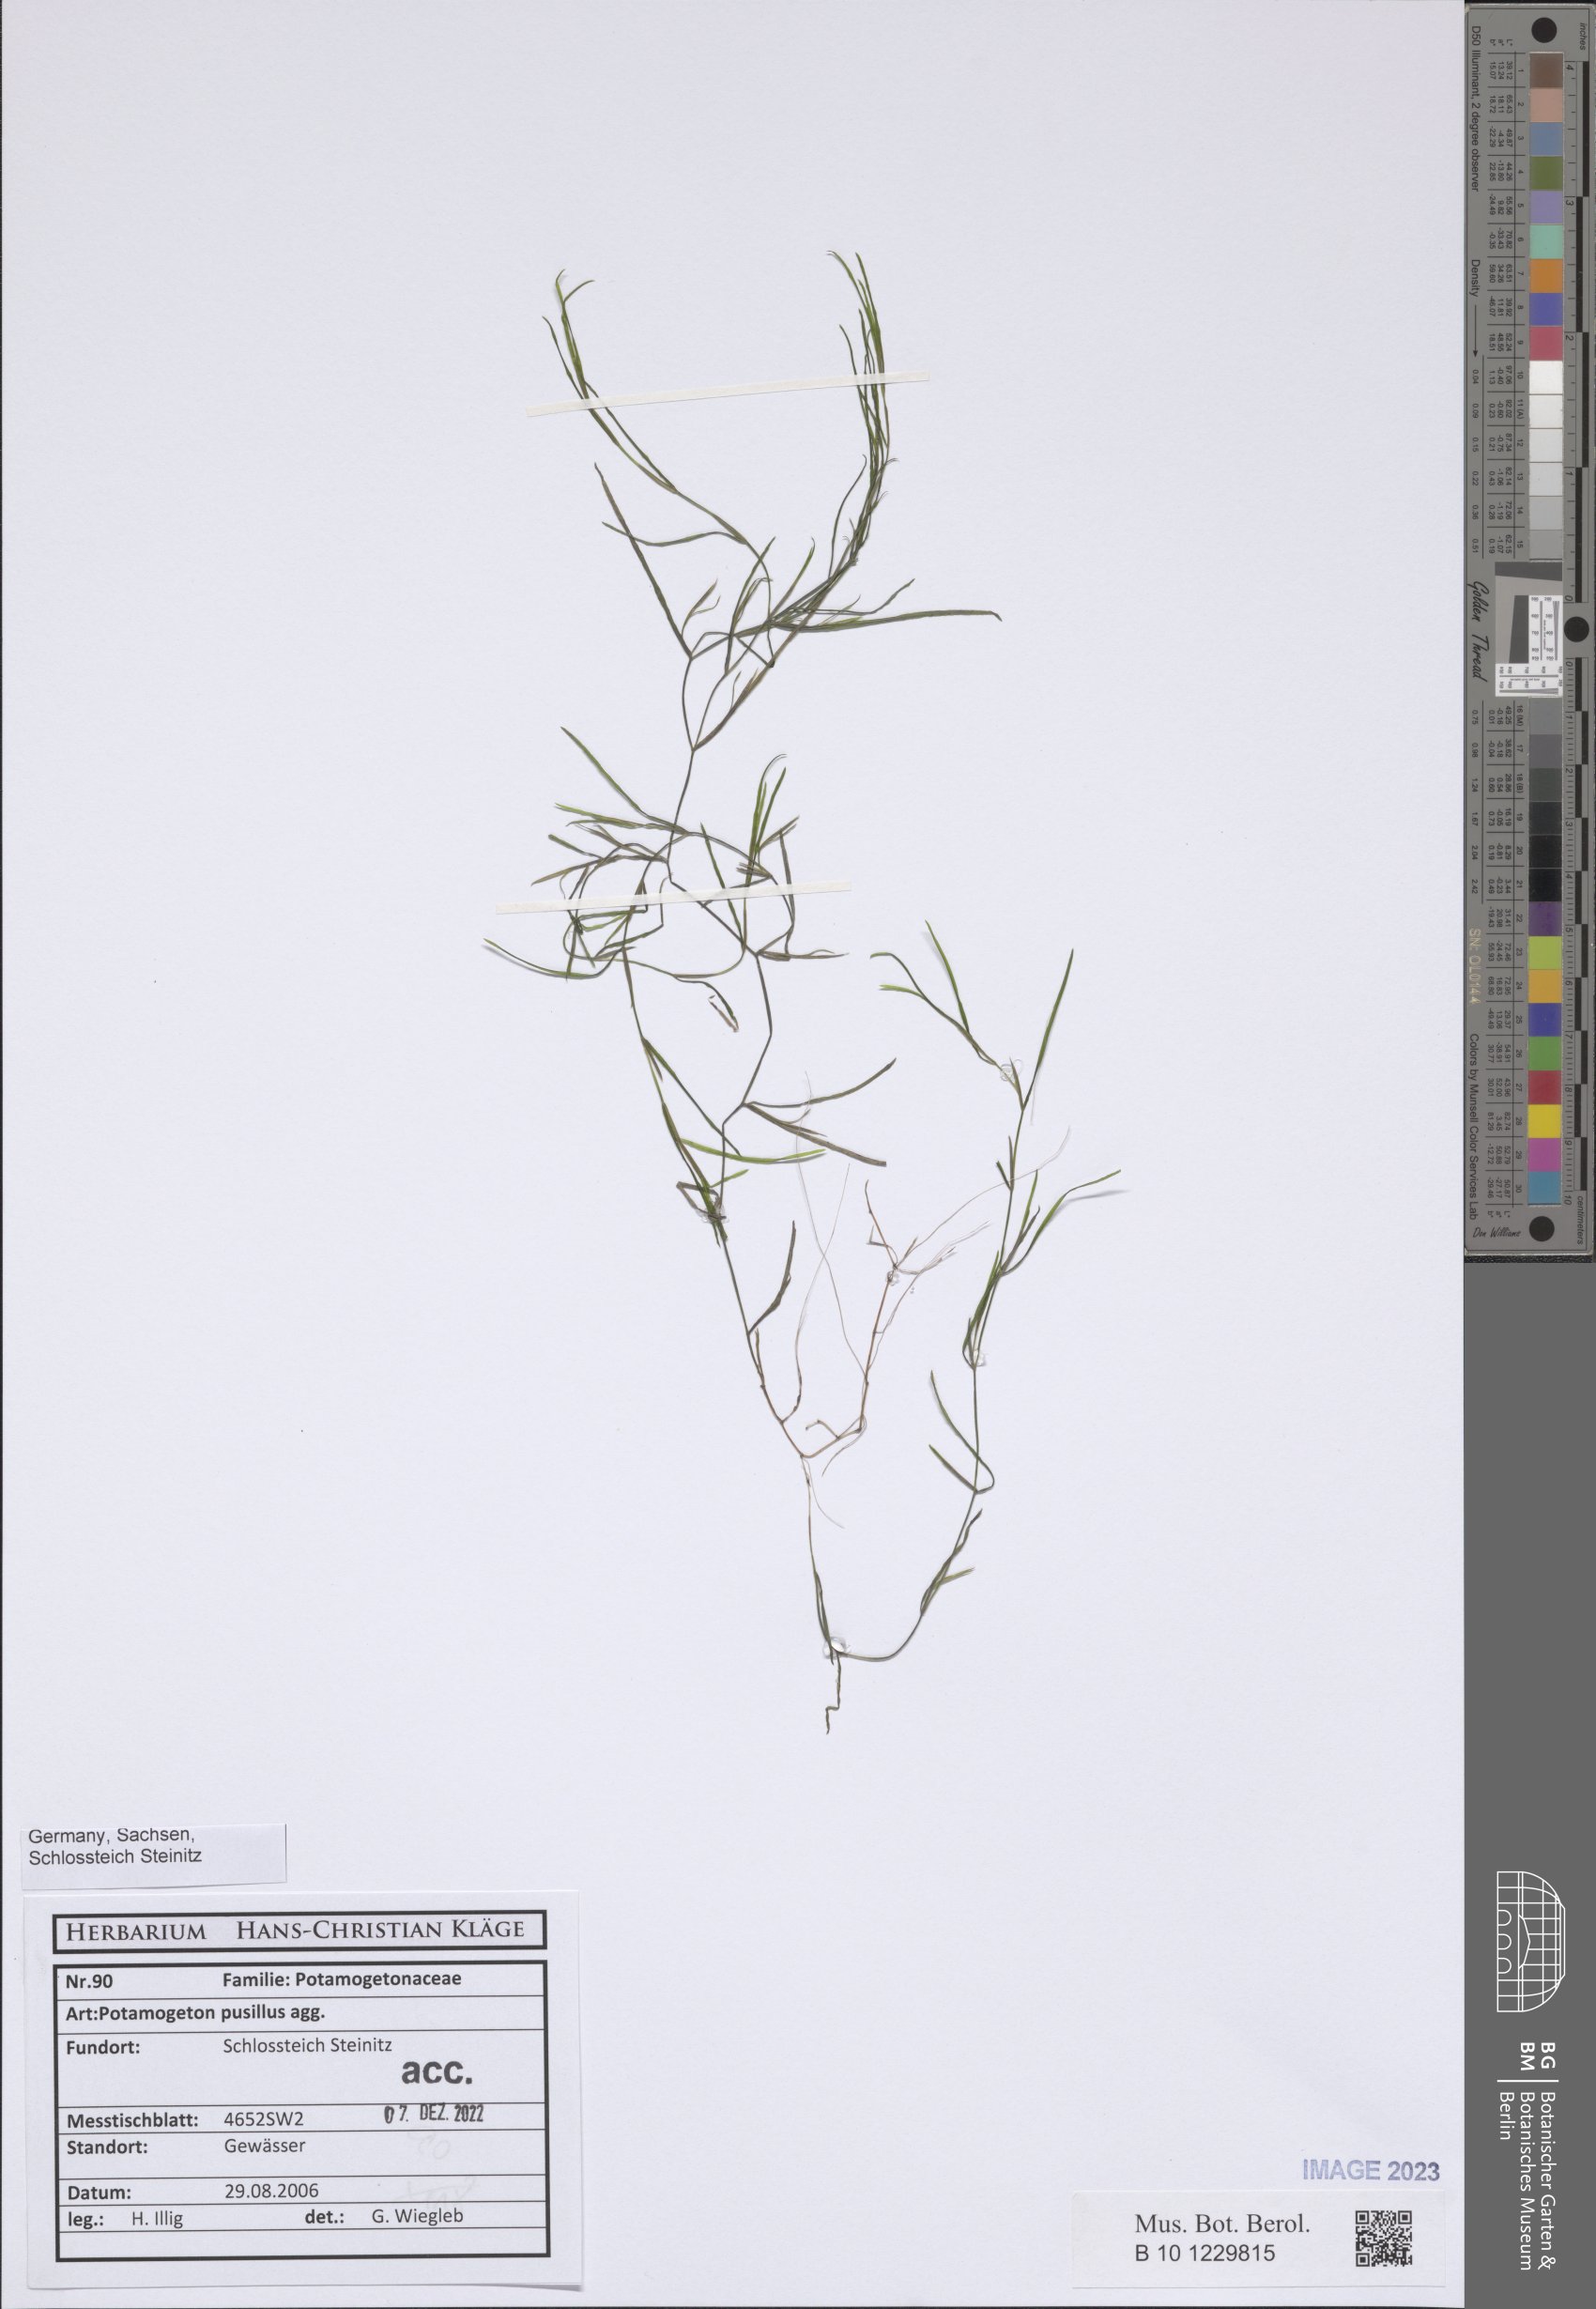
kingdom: Plantae
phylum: Tracheophyta
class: Liliopsida
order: Alismatales
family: Potamogetonaceae
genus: Potamogeton
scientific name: Potamogeton pusillus
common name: Lesser pondweed
